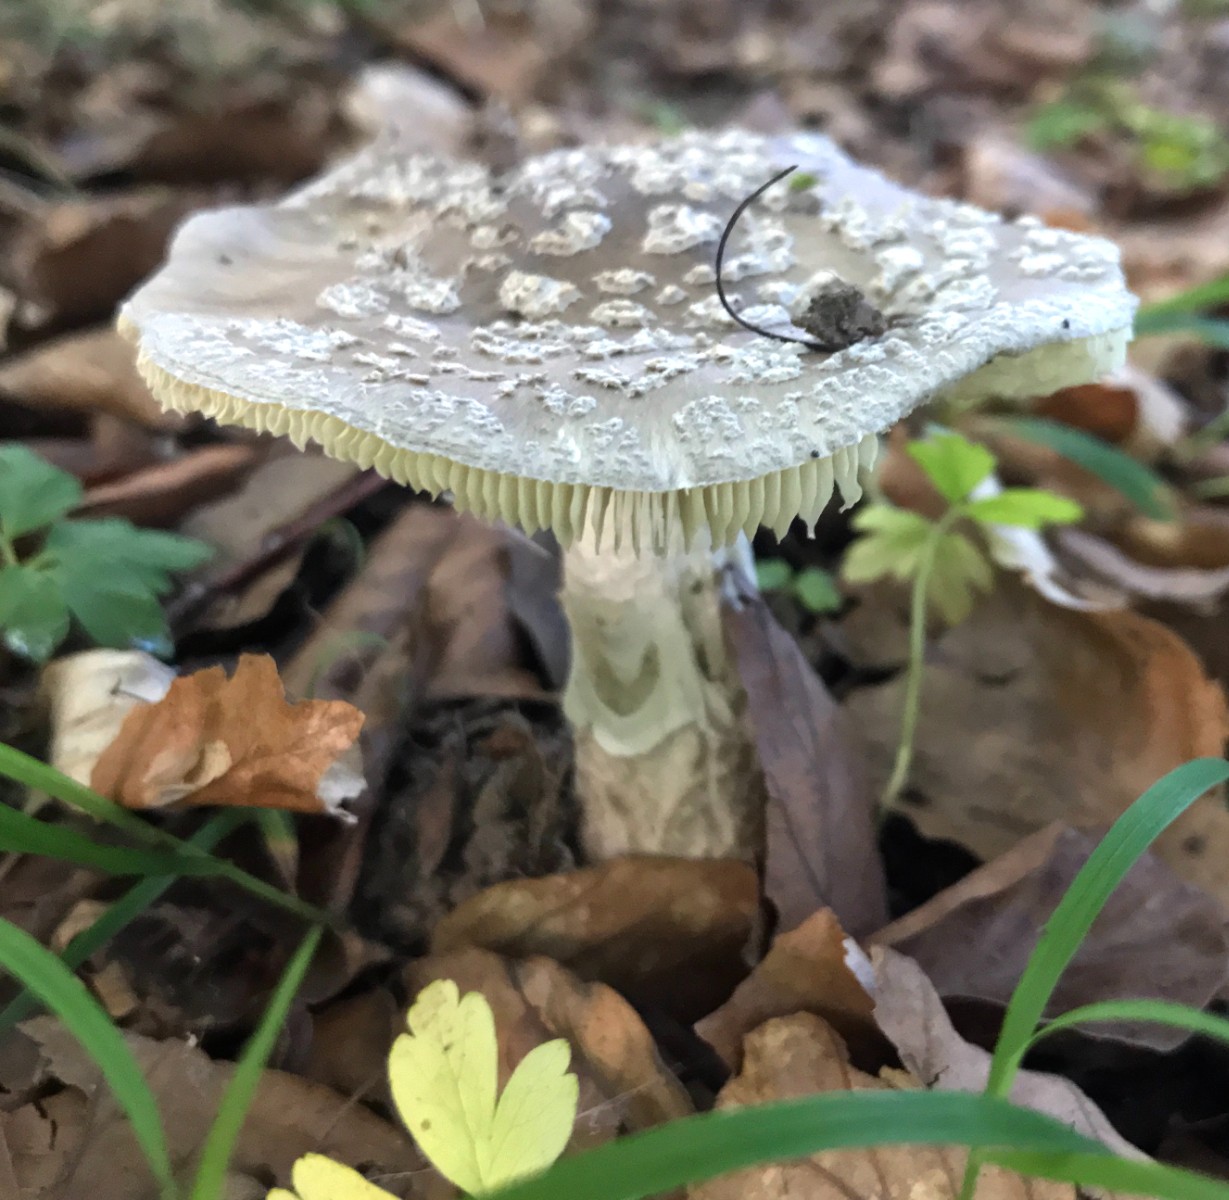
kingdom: Fungi
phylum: Basidiomycota
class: Agaricomycetes
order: Agaricales
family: Amanitaceae
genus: Amanita
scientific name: Amanita pantherina
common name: panter-fluesvamp
